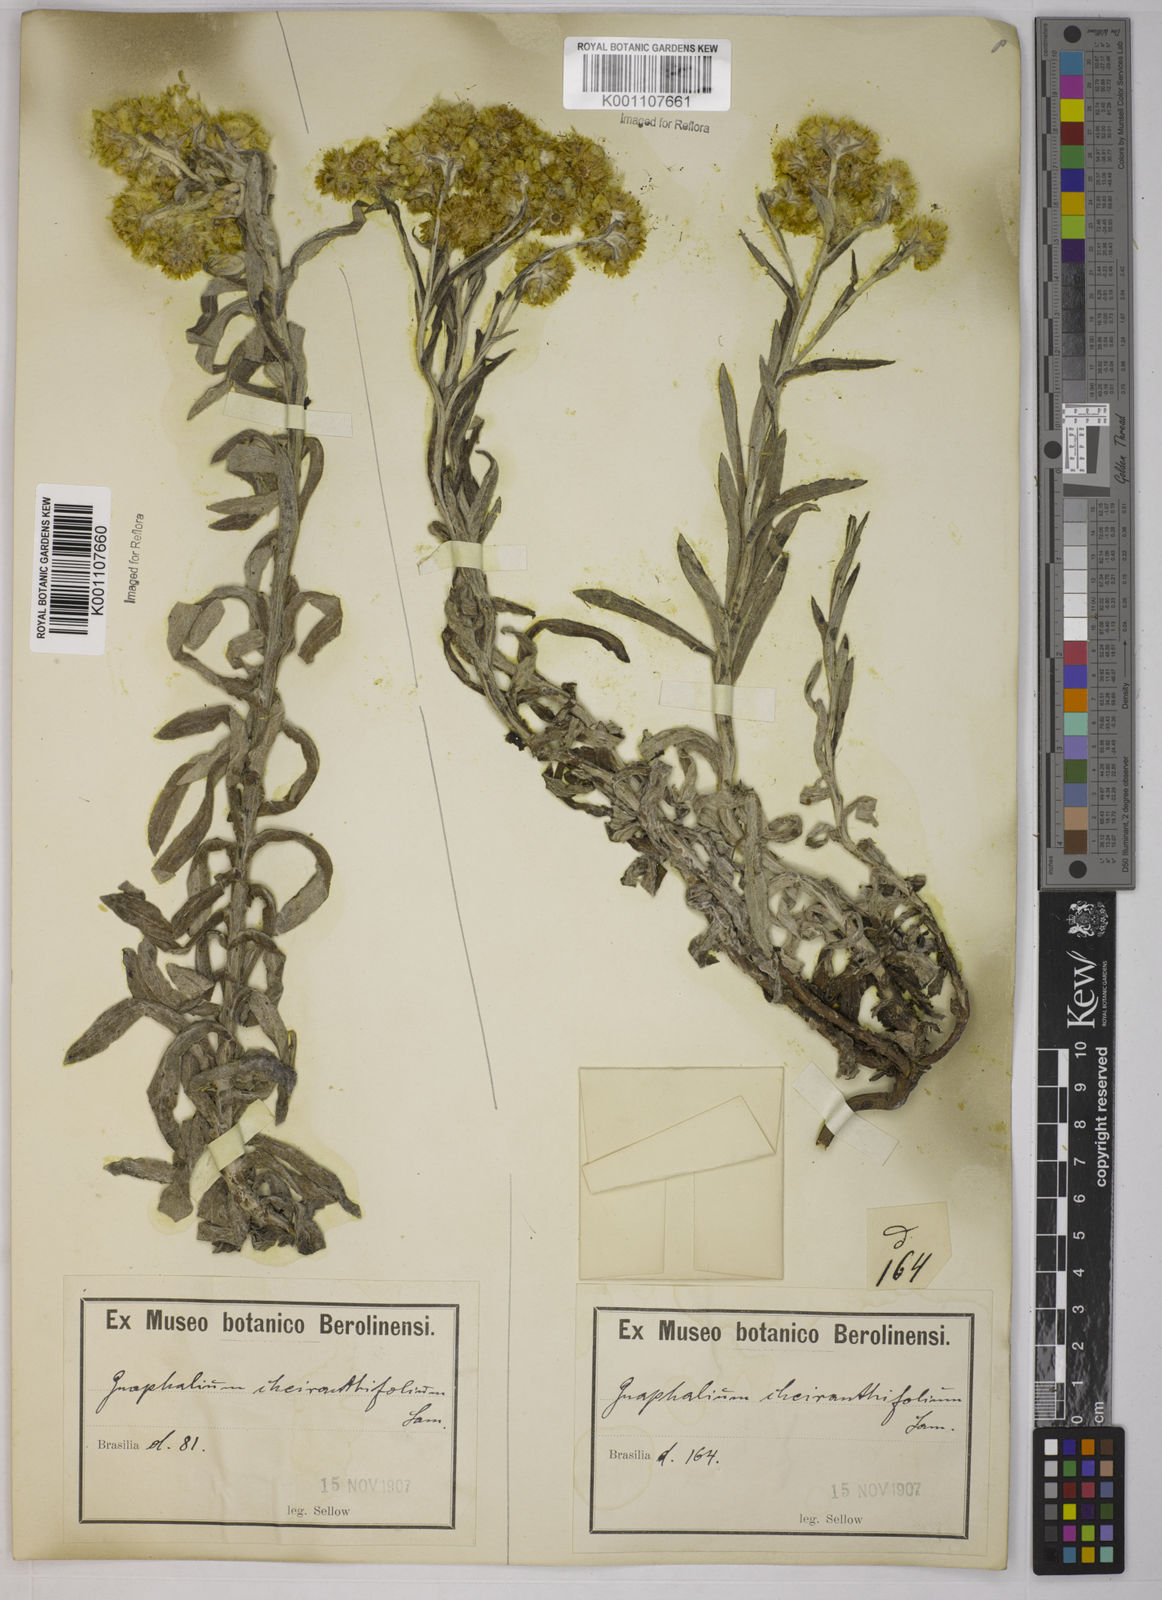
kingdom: Plantae
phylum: Tracheophyta
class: Magnoliopsida
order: Asterales
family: Asteraceae
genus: Pseudognaphalium
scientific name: Pseudognaphalium cheiranthifolium
